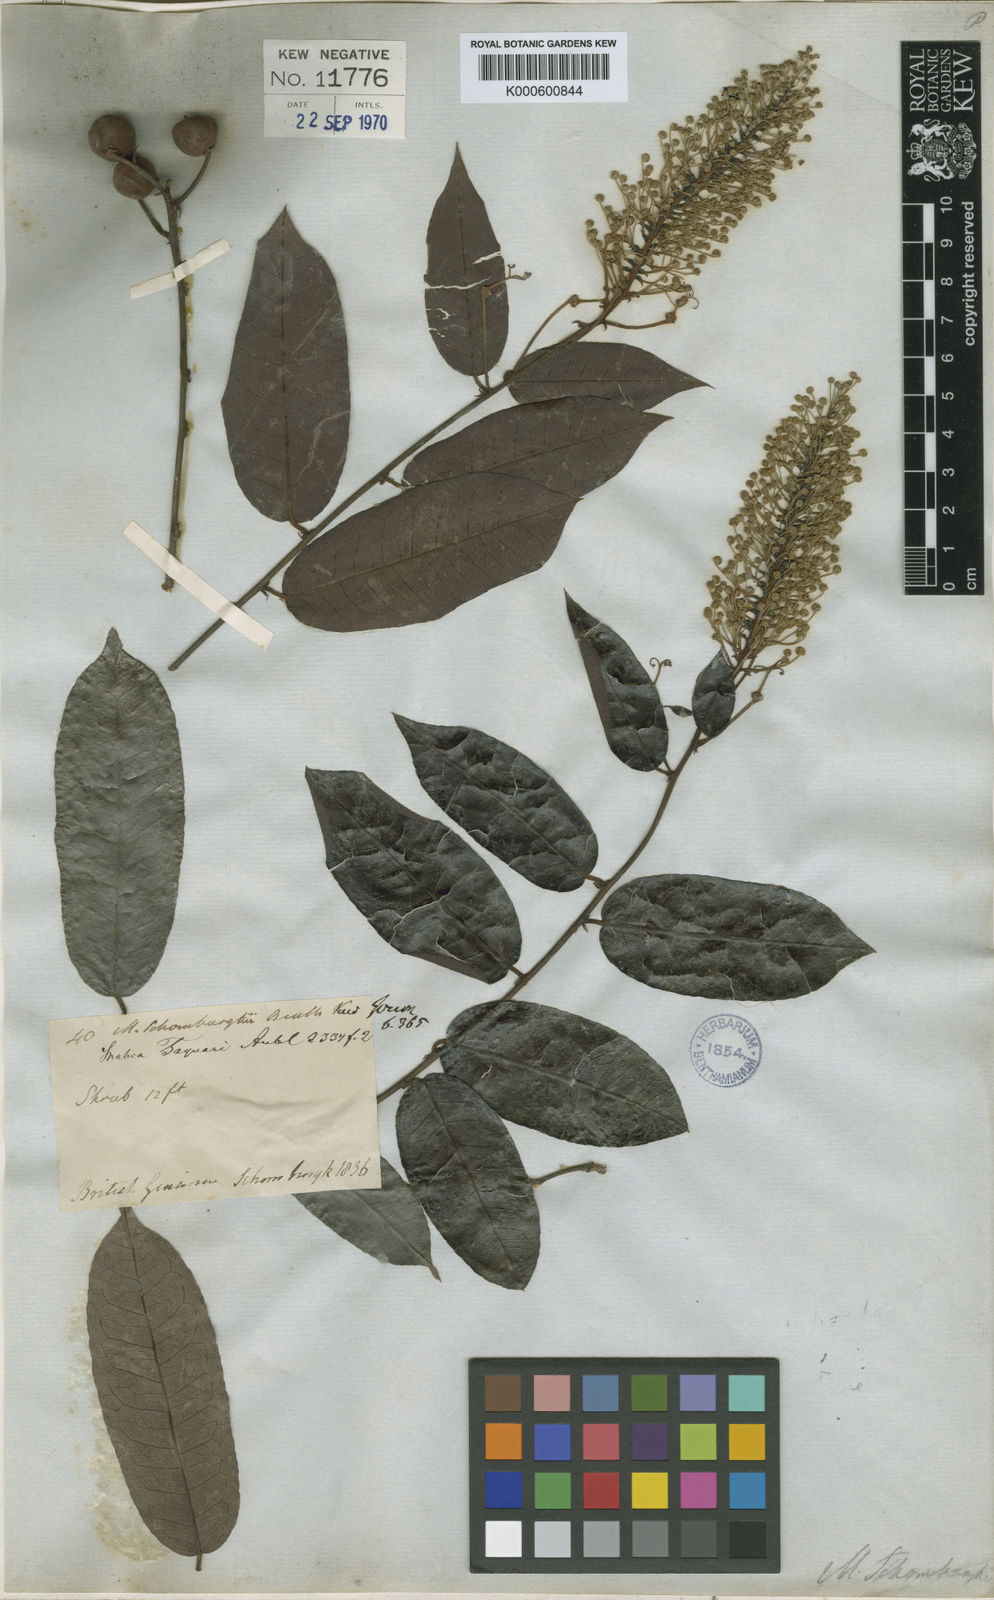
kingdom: Plantae
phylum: Tracheophyta
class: Magnoliopsida
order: Malpighiales
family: Euphorbiaceae
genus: Mabea
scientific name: Mabea taquari
